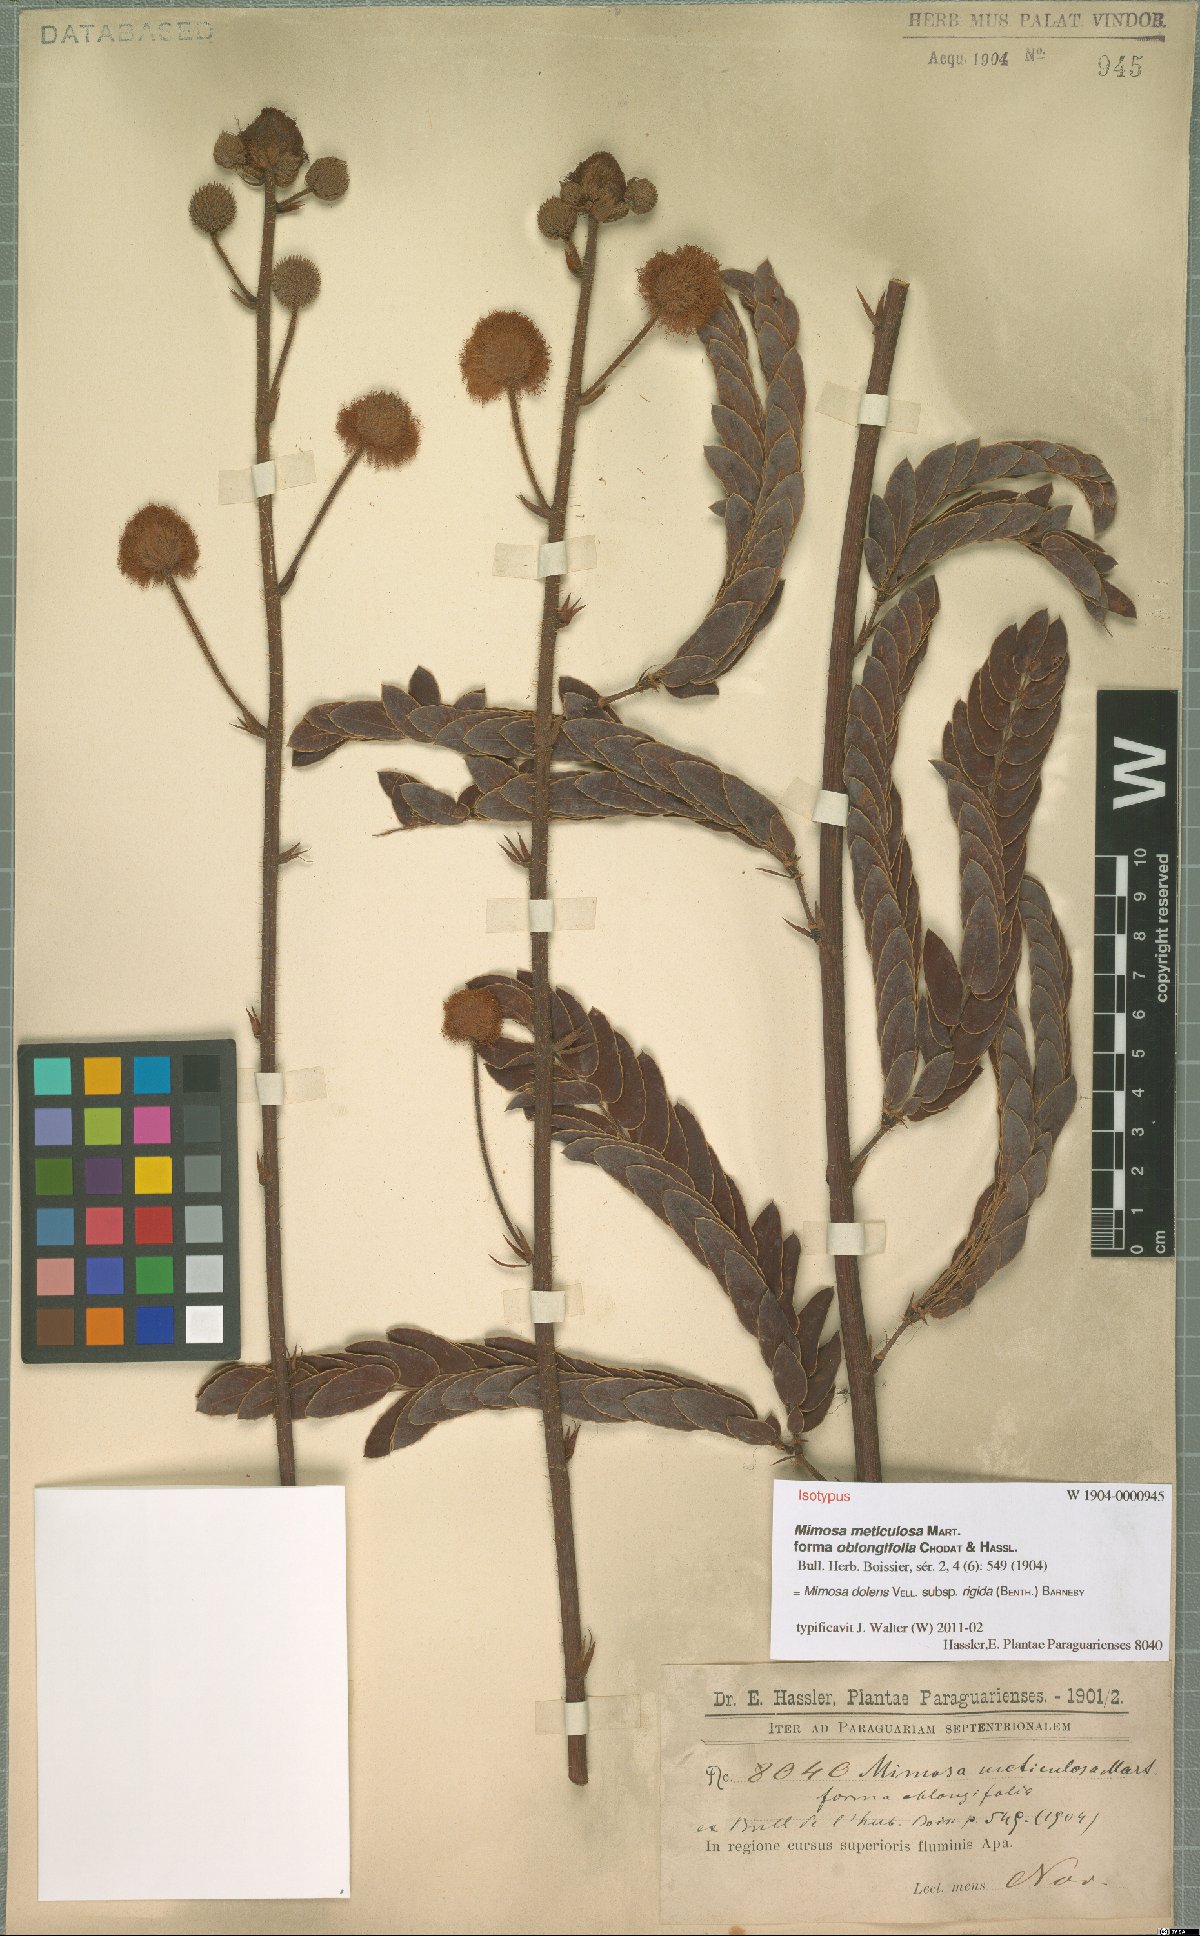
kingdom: Plantae
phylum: Tracheophyta
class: Magnoliopsida
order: Fabales
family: Fabaceae
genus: Mimosa
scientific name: Mimosa dolens
